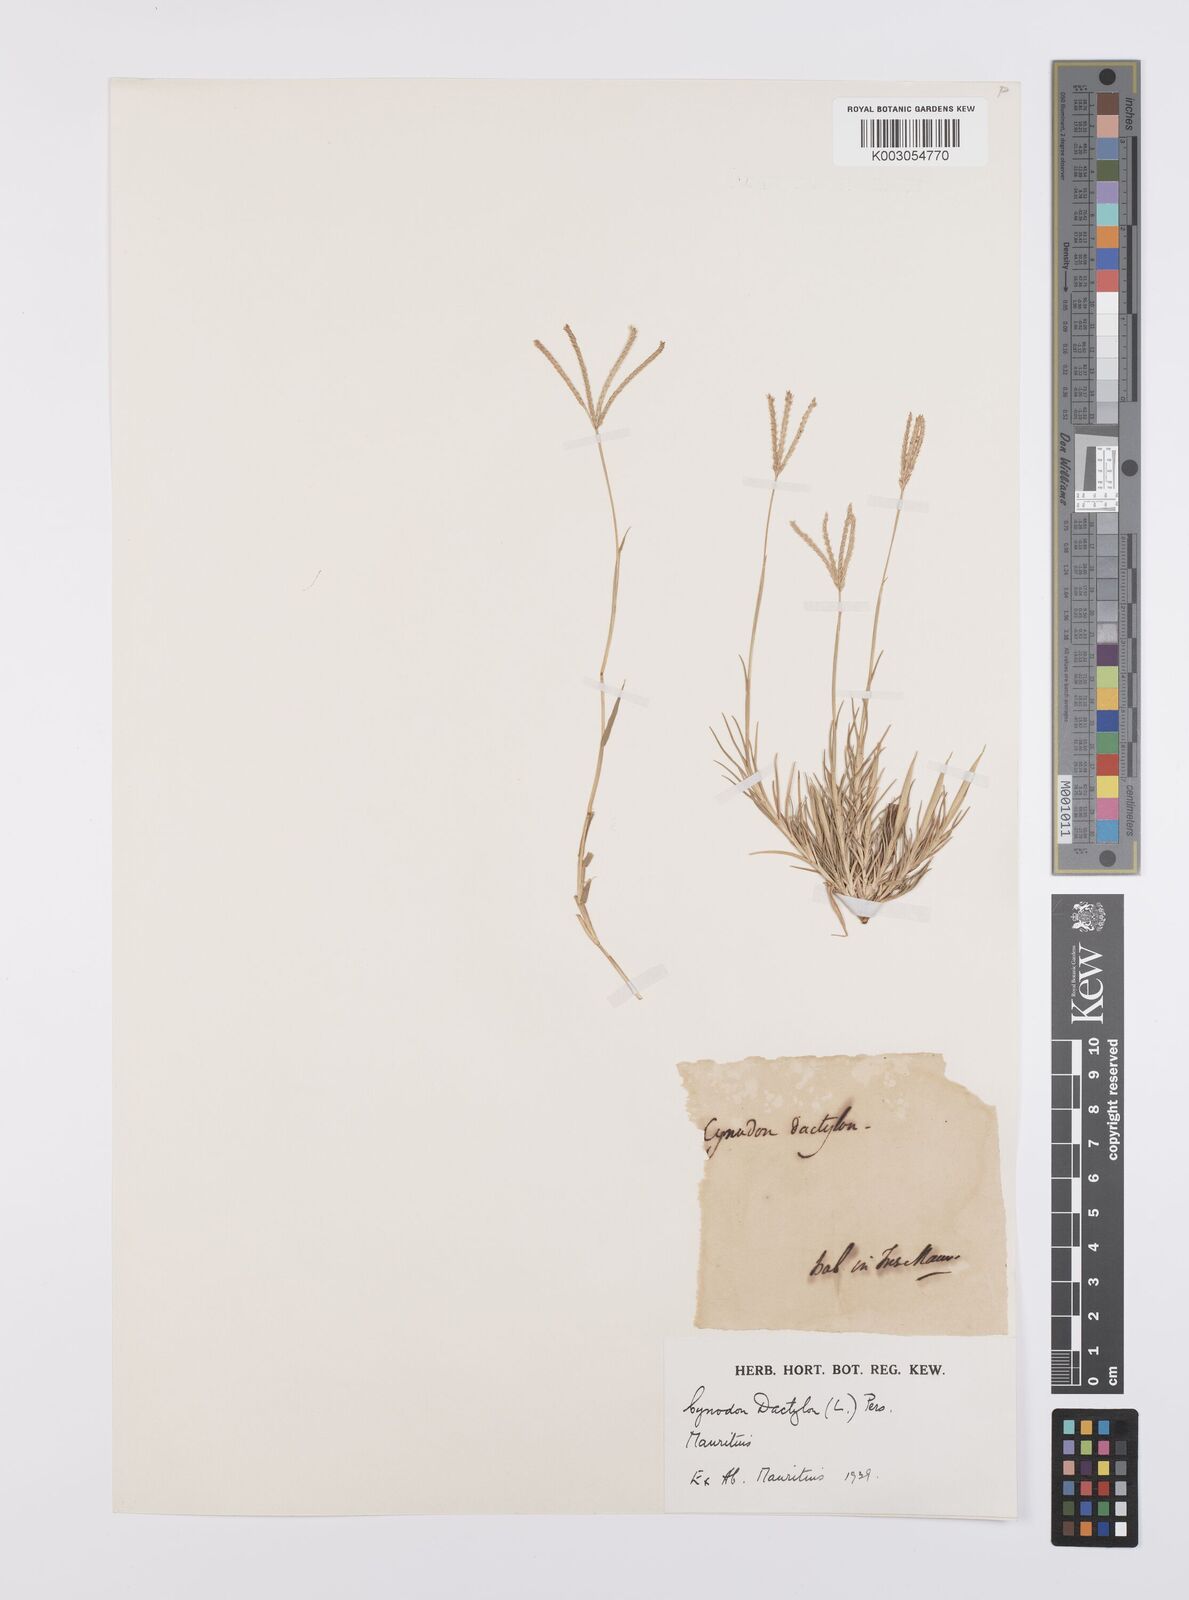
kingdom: Plantae
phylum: Tracheophyta
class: Liliopsida
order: Poales
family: Poaceae
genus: Cynodon
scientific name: Cynodon dactylon
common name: Bermuda grass
